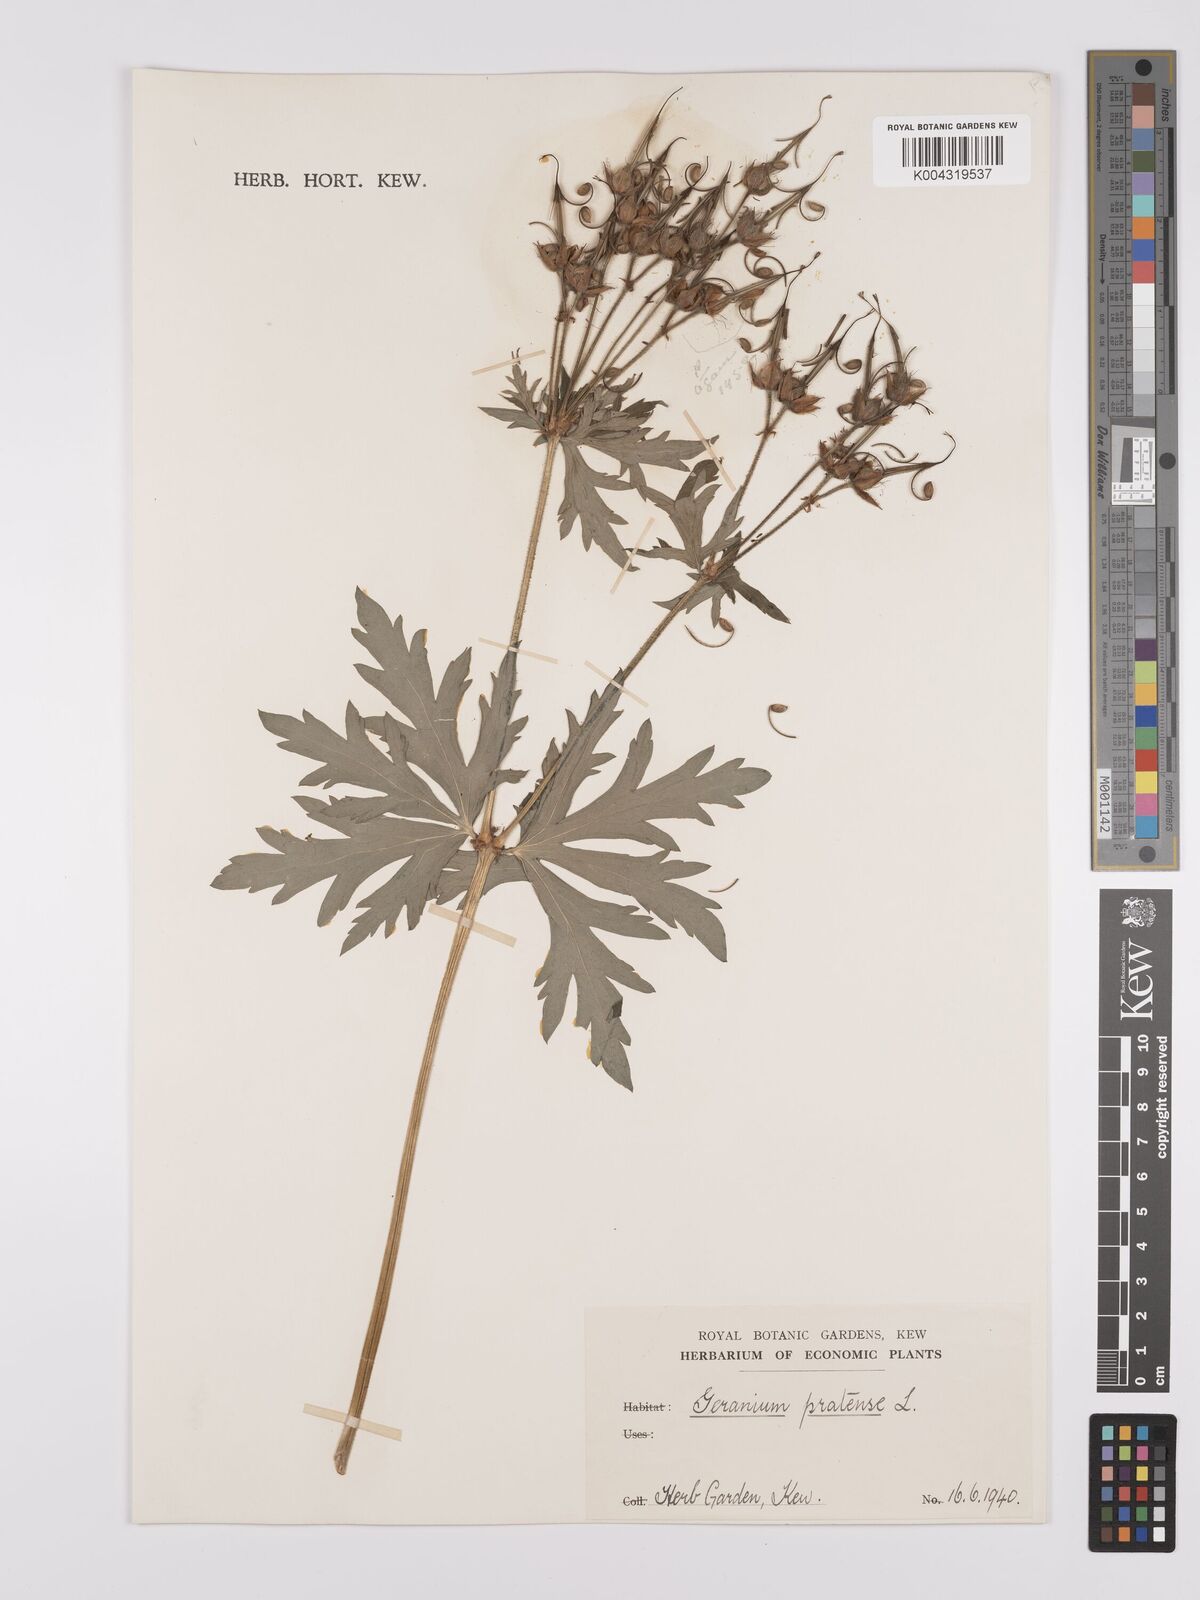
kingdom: Plantae
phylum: Tracheophyta
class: Magnoliopsida
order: Geraniales
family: Geraniaceae
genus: Geranium
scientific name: Geranium pratense
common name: Meadow crane's-bill
